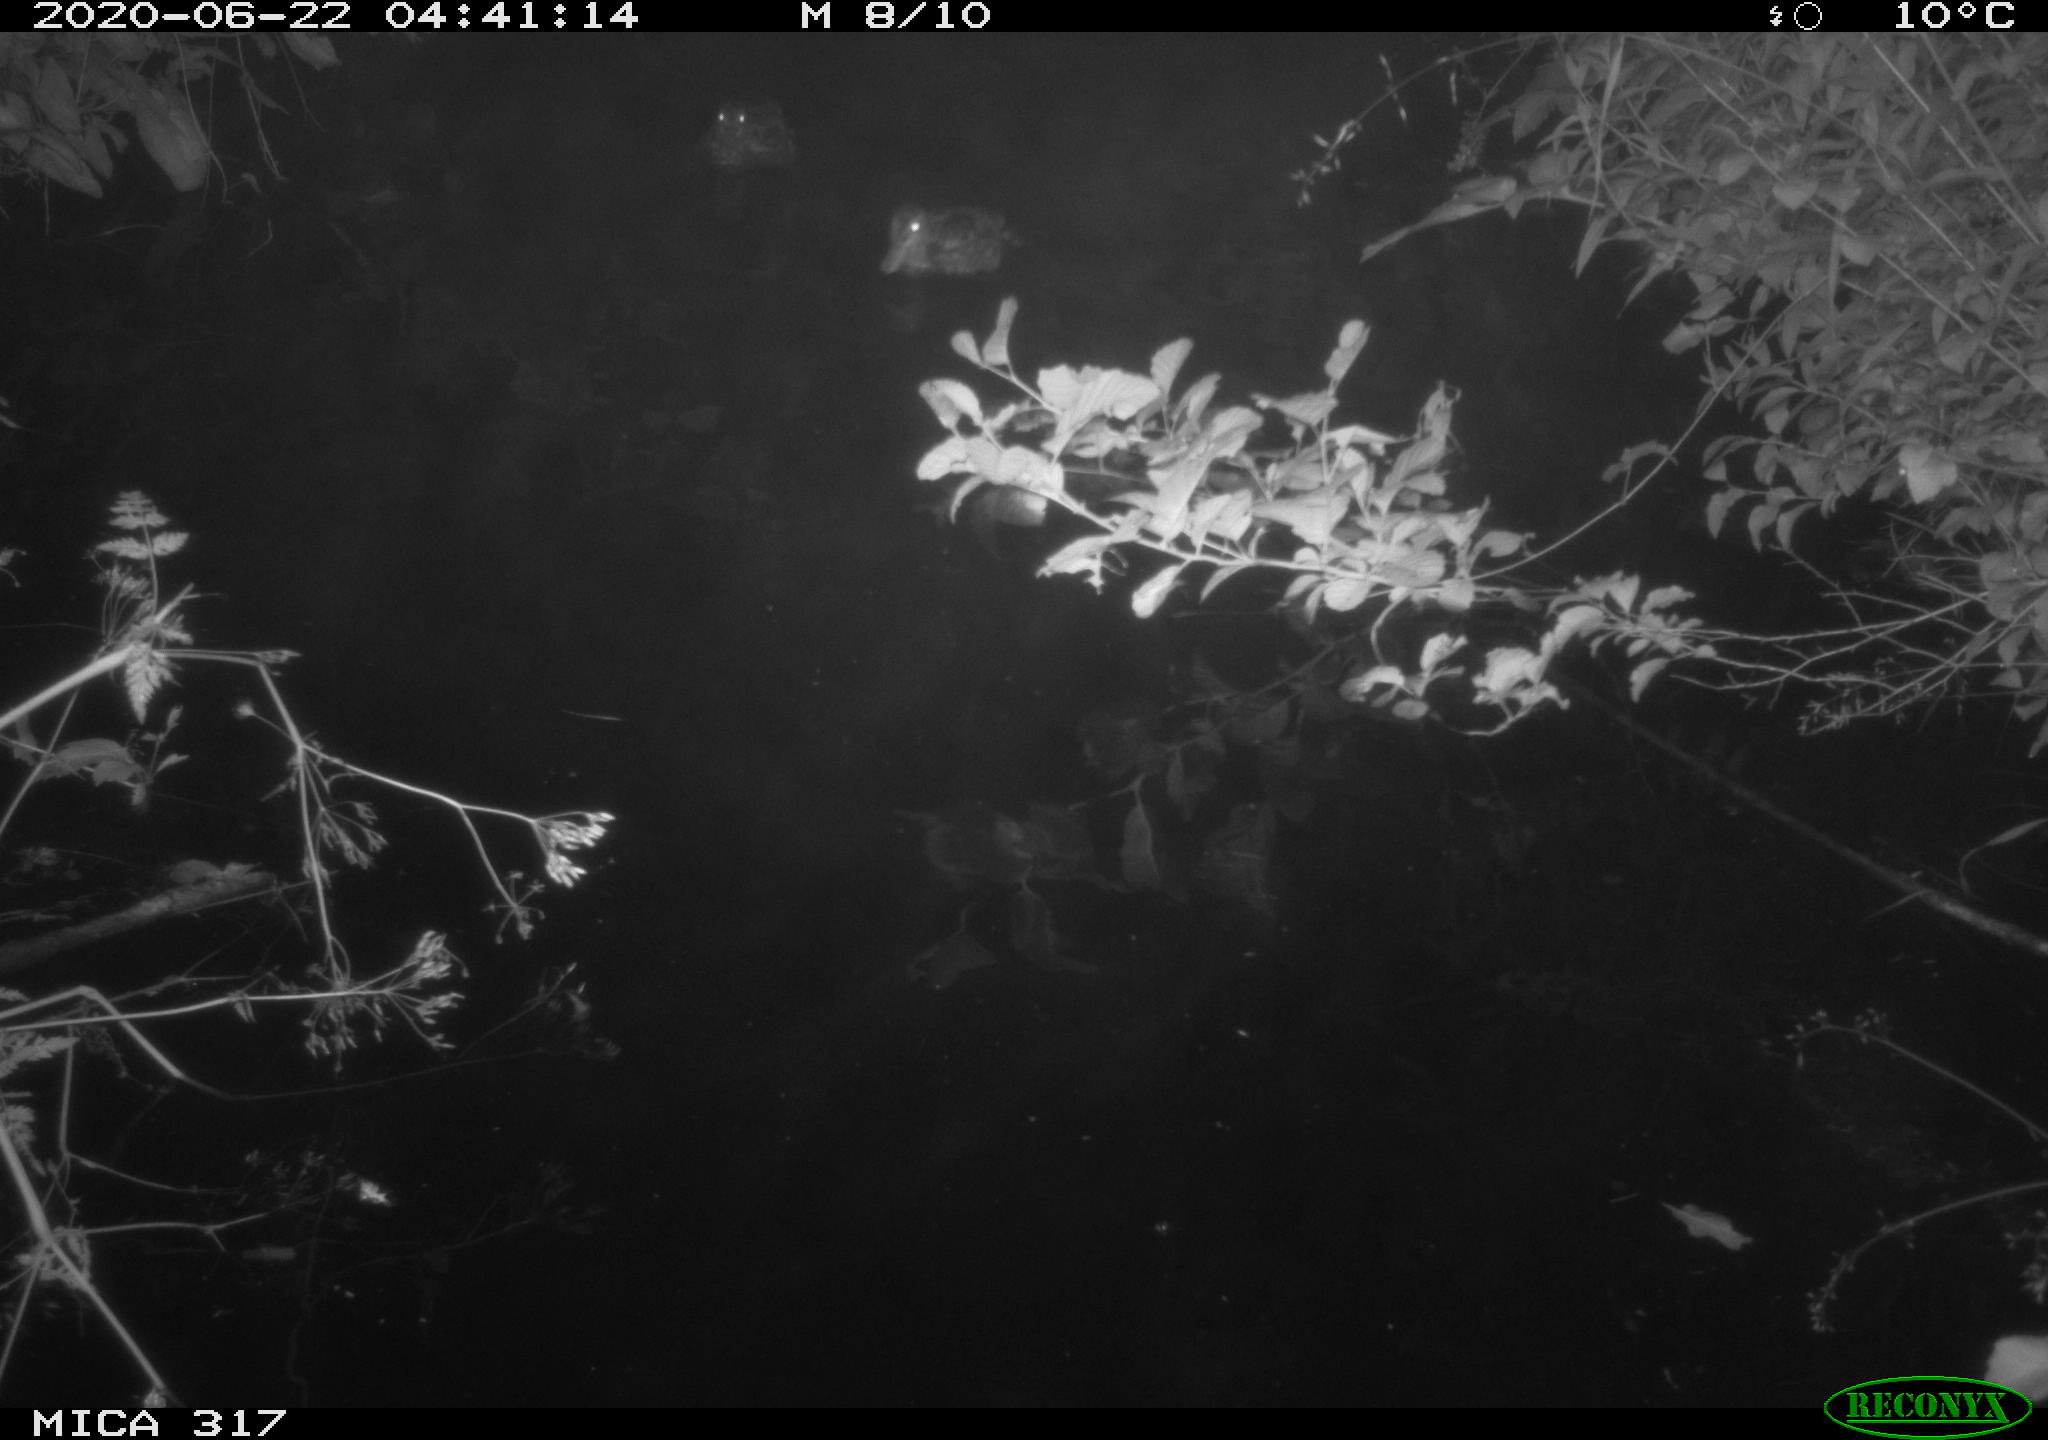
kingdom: Animalia
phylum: Chordata
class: Aves
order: Anseriformes
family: Anatidae
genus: Anas
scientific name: Anas platyrhynchos
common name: Mallard
